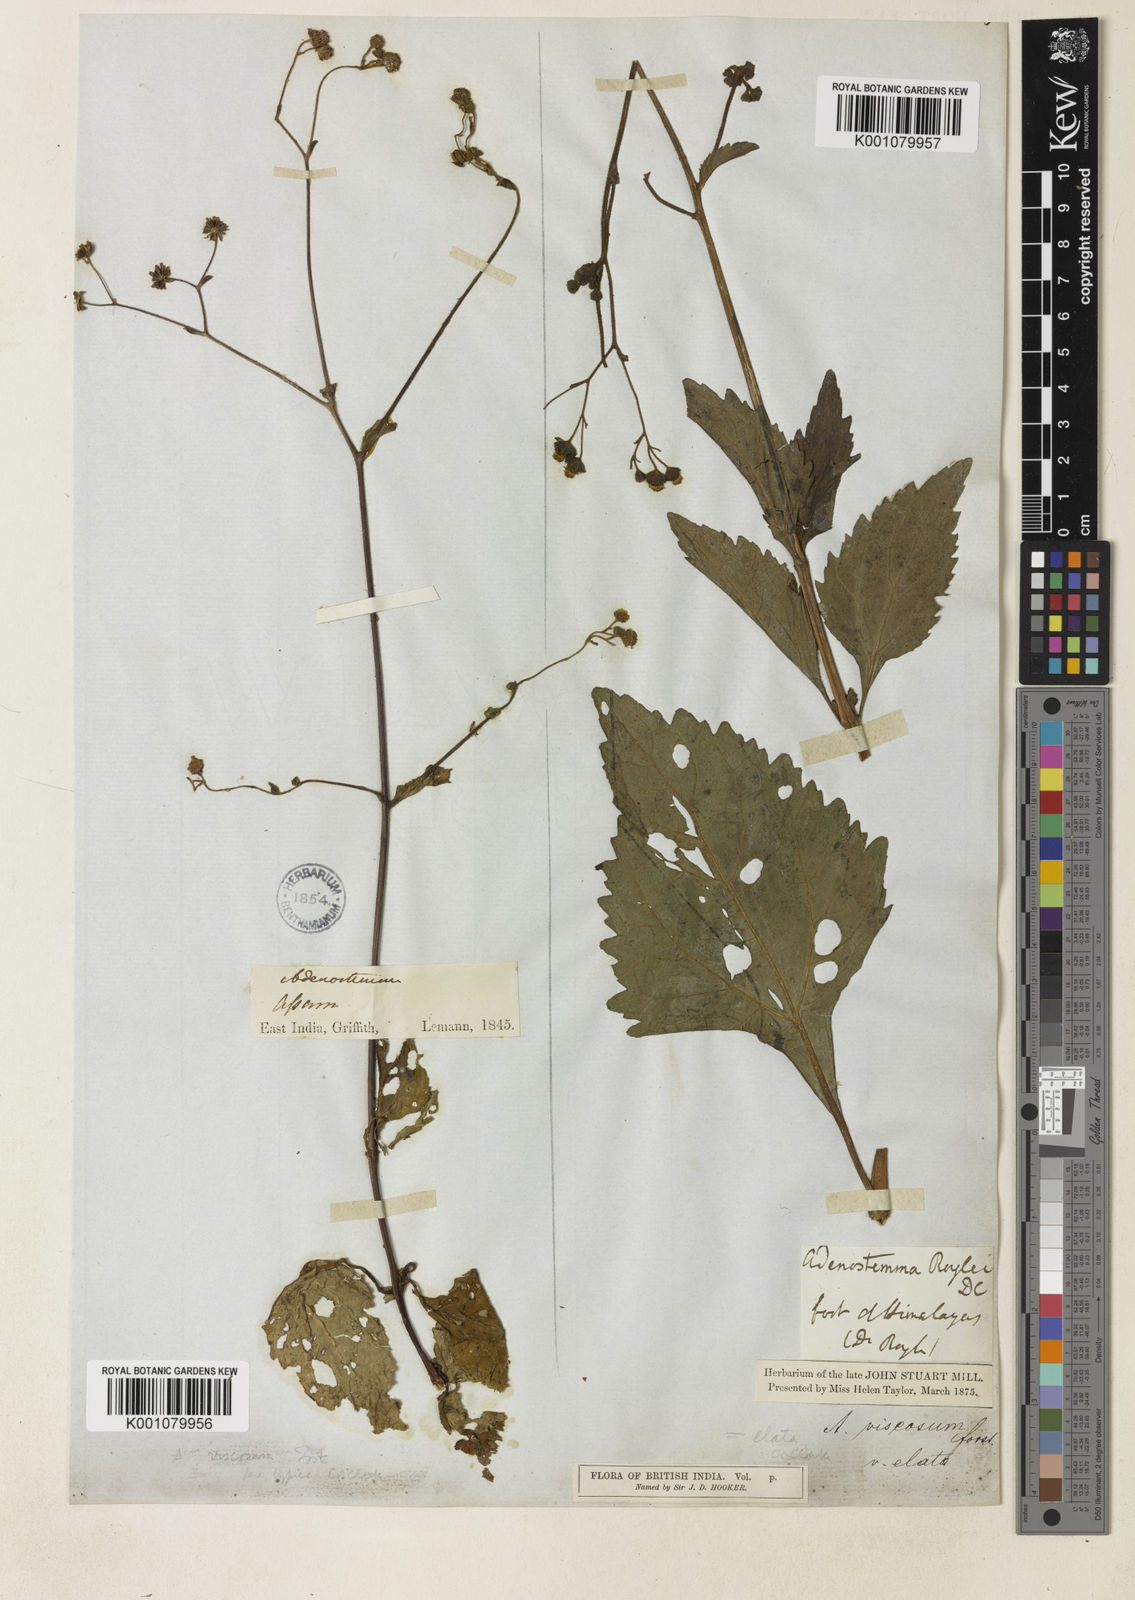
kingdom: Plantae
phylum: Tracheophyta
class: Magnoliopsida
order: Asterales
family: Asteraceae
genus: Adenostemma
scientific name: Adenostemma macrophyllum
